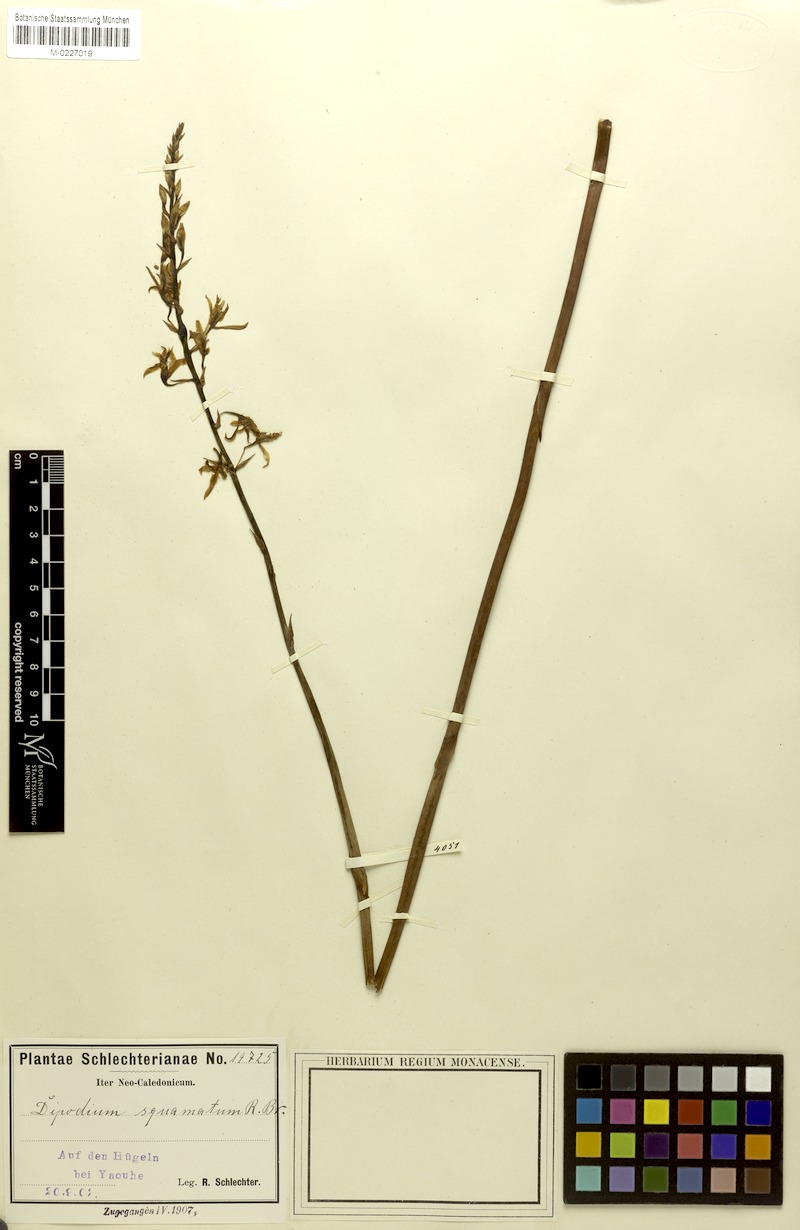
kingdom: Plantae
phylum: Tracheophyta
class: Liliopsida
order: Asparagales
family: Orchidaceae
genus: Dipodium
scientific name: Dipodium squamatum
